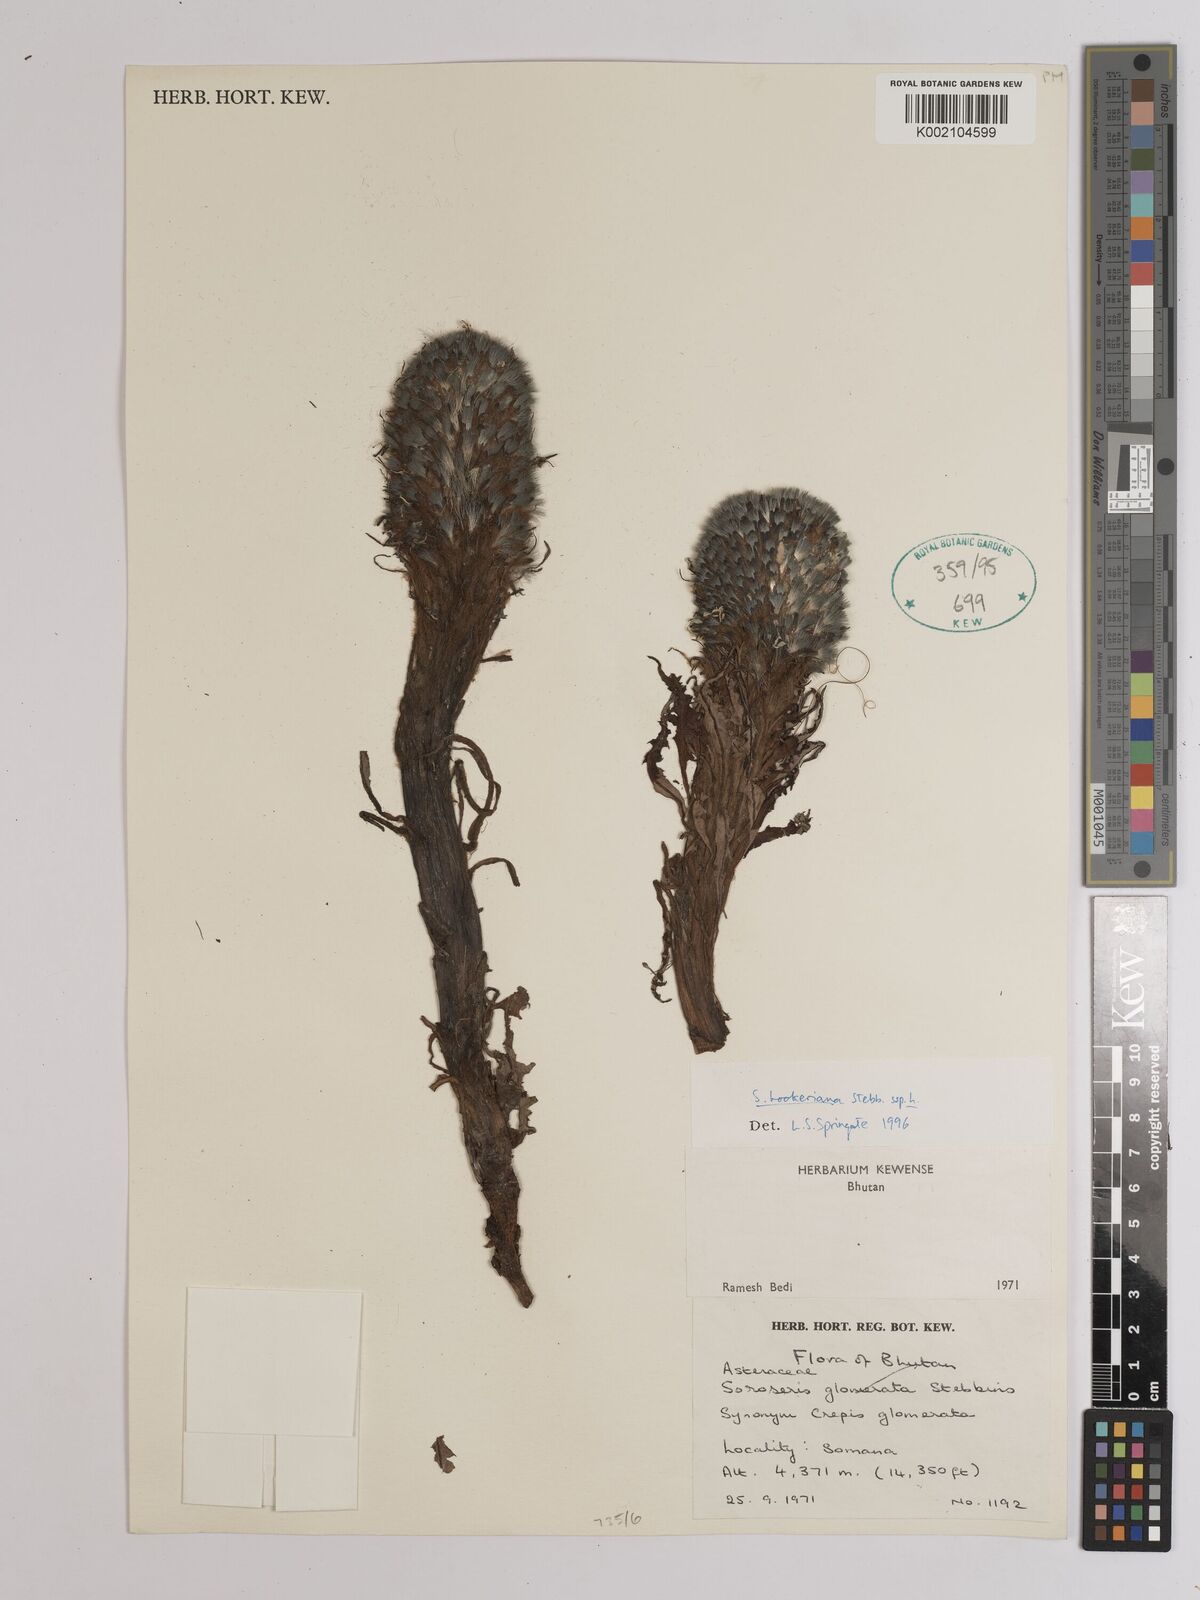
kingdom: Plantae
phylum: Tracheophyta
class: Magnoliopsida
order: Asterales
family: Asteraceae
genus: Soroseris
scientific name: Soroseris hookeriana
